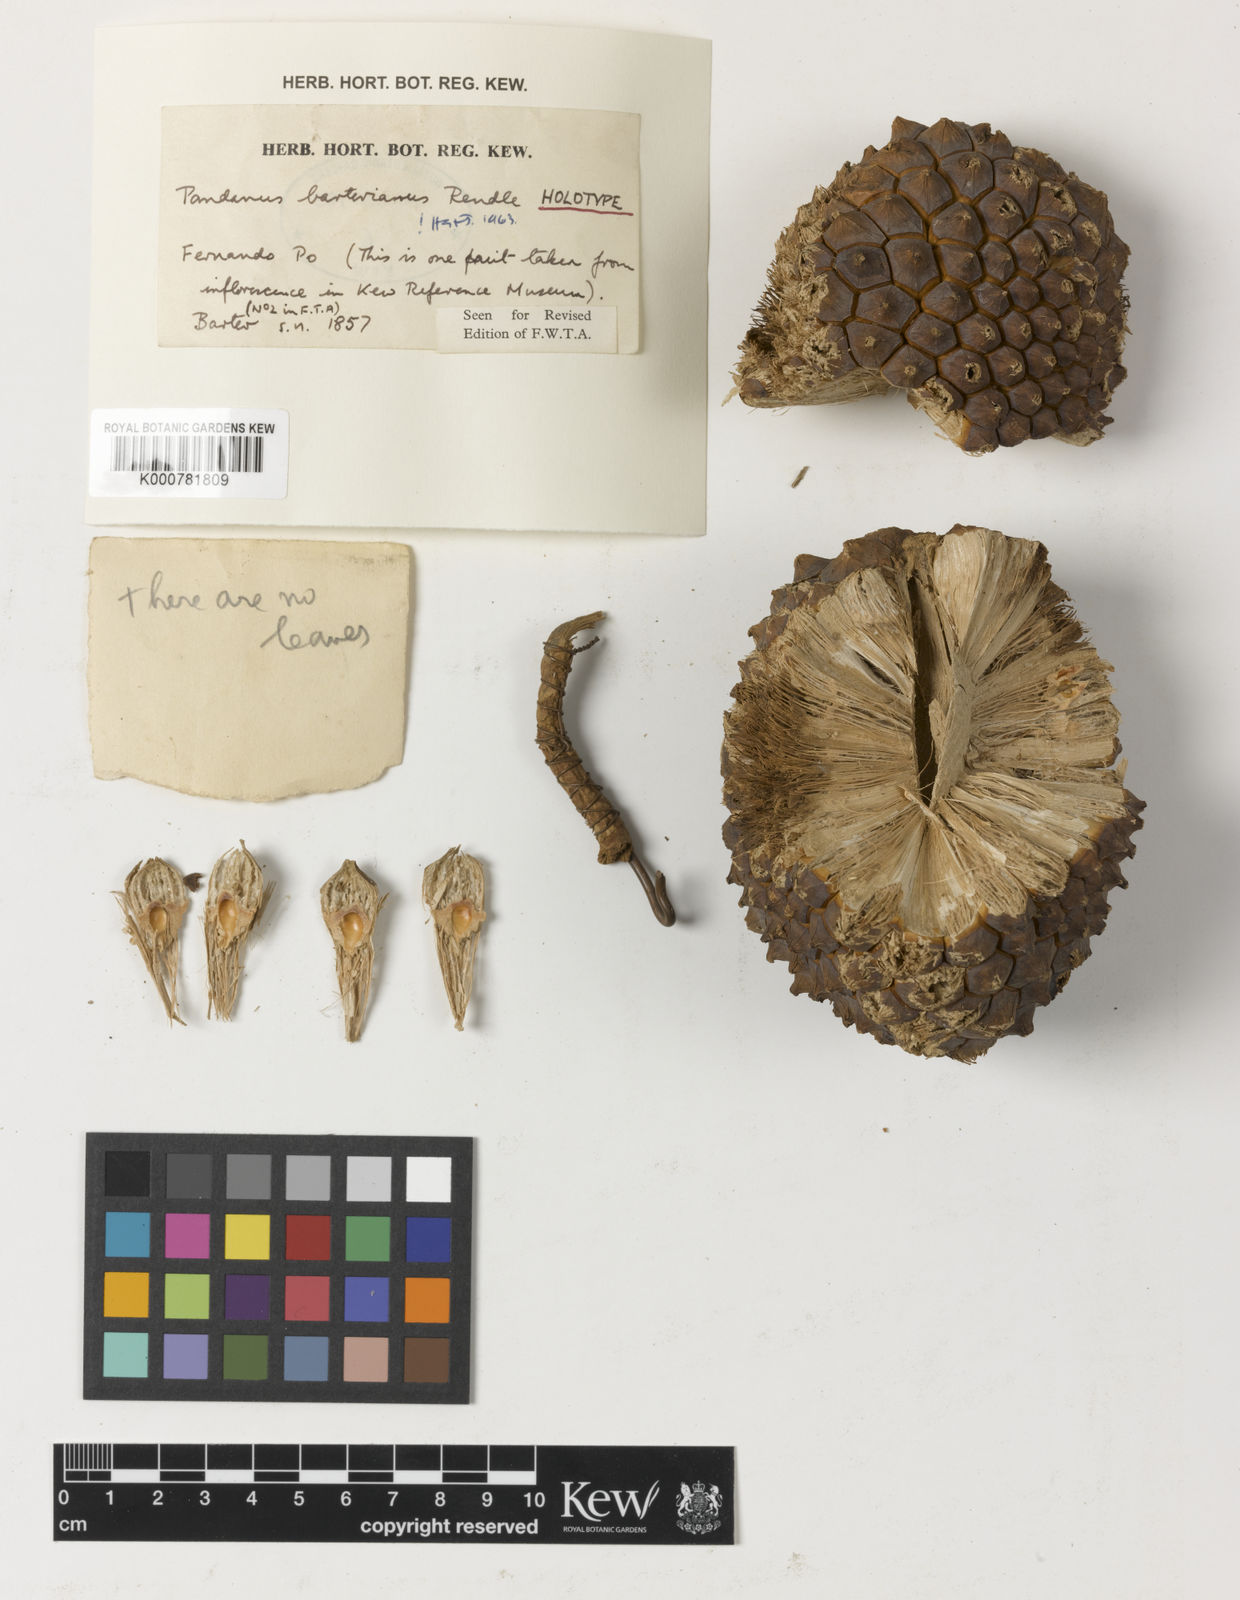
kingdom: Plantae
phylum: Tracheophyta
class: Liliopsida
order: Pandanales
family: Pandanaceae
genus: Pandanus
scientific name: Pandanus candelabrum
